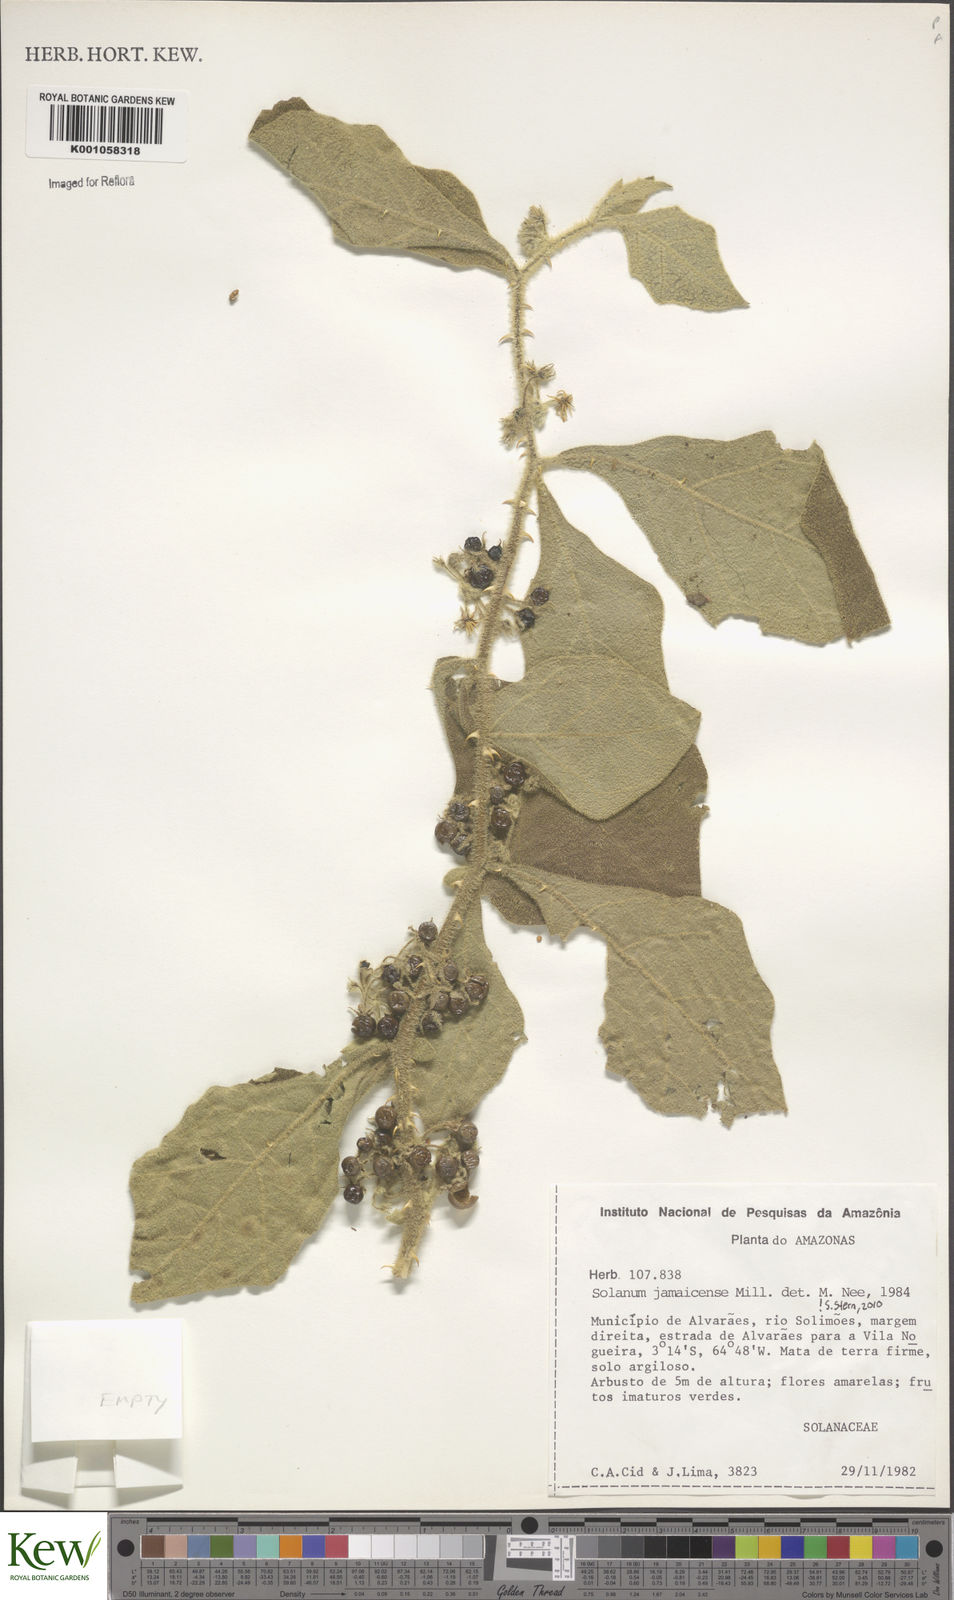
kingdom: Plantae
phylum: Tracheophyta
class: Magnoliopsida
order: Solanales
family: Solanaceae
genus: Solanum
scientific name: Solanum jamaicense
